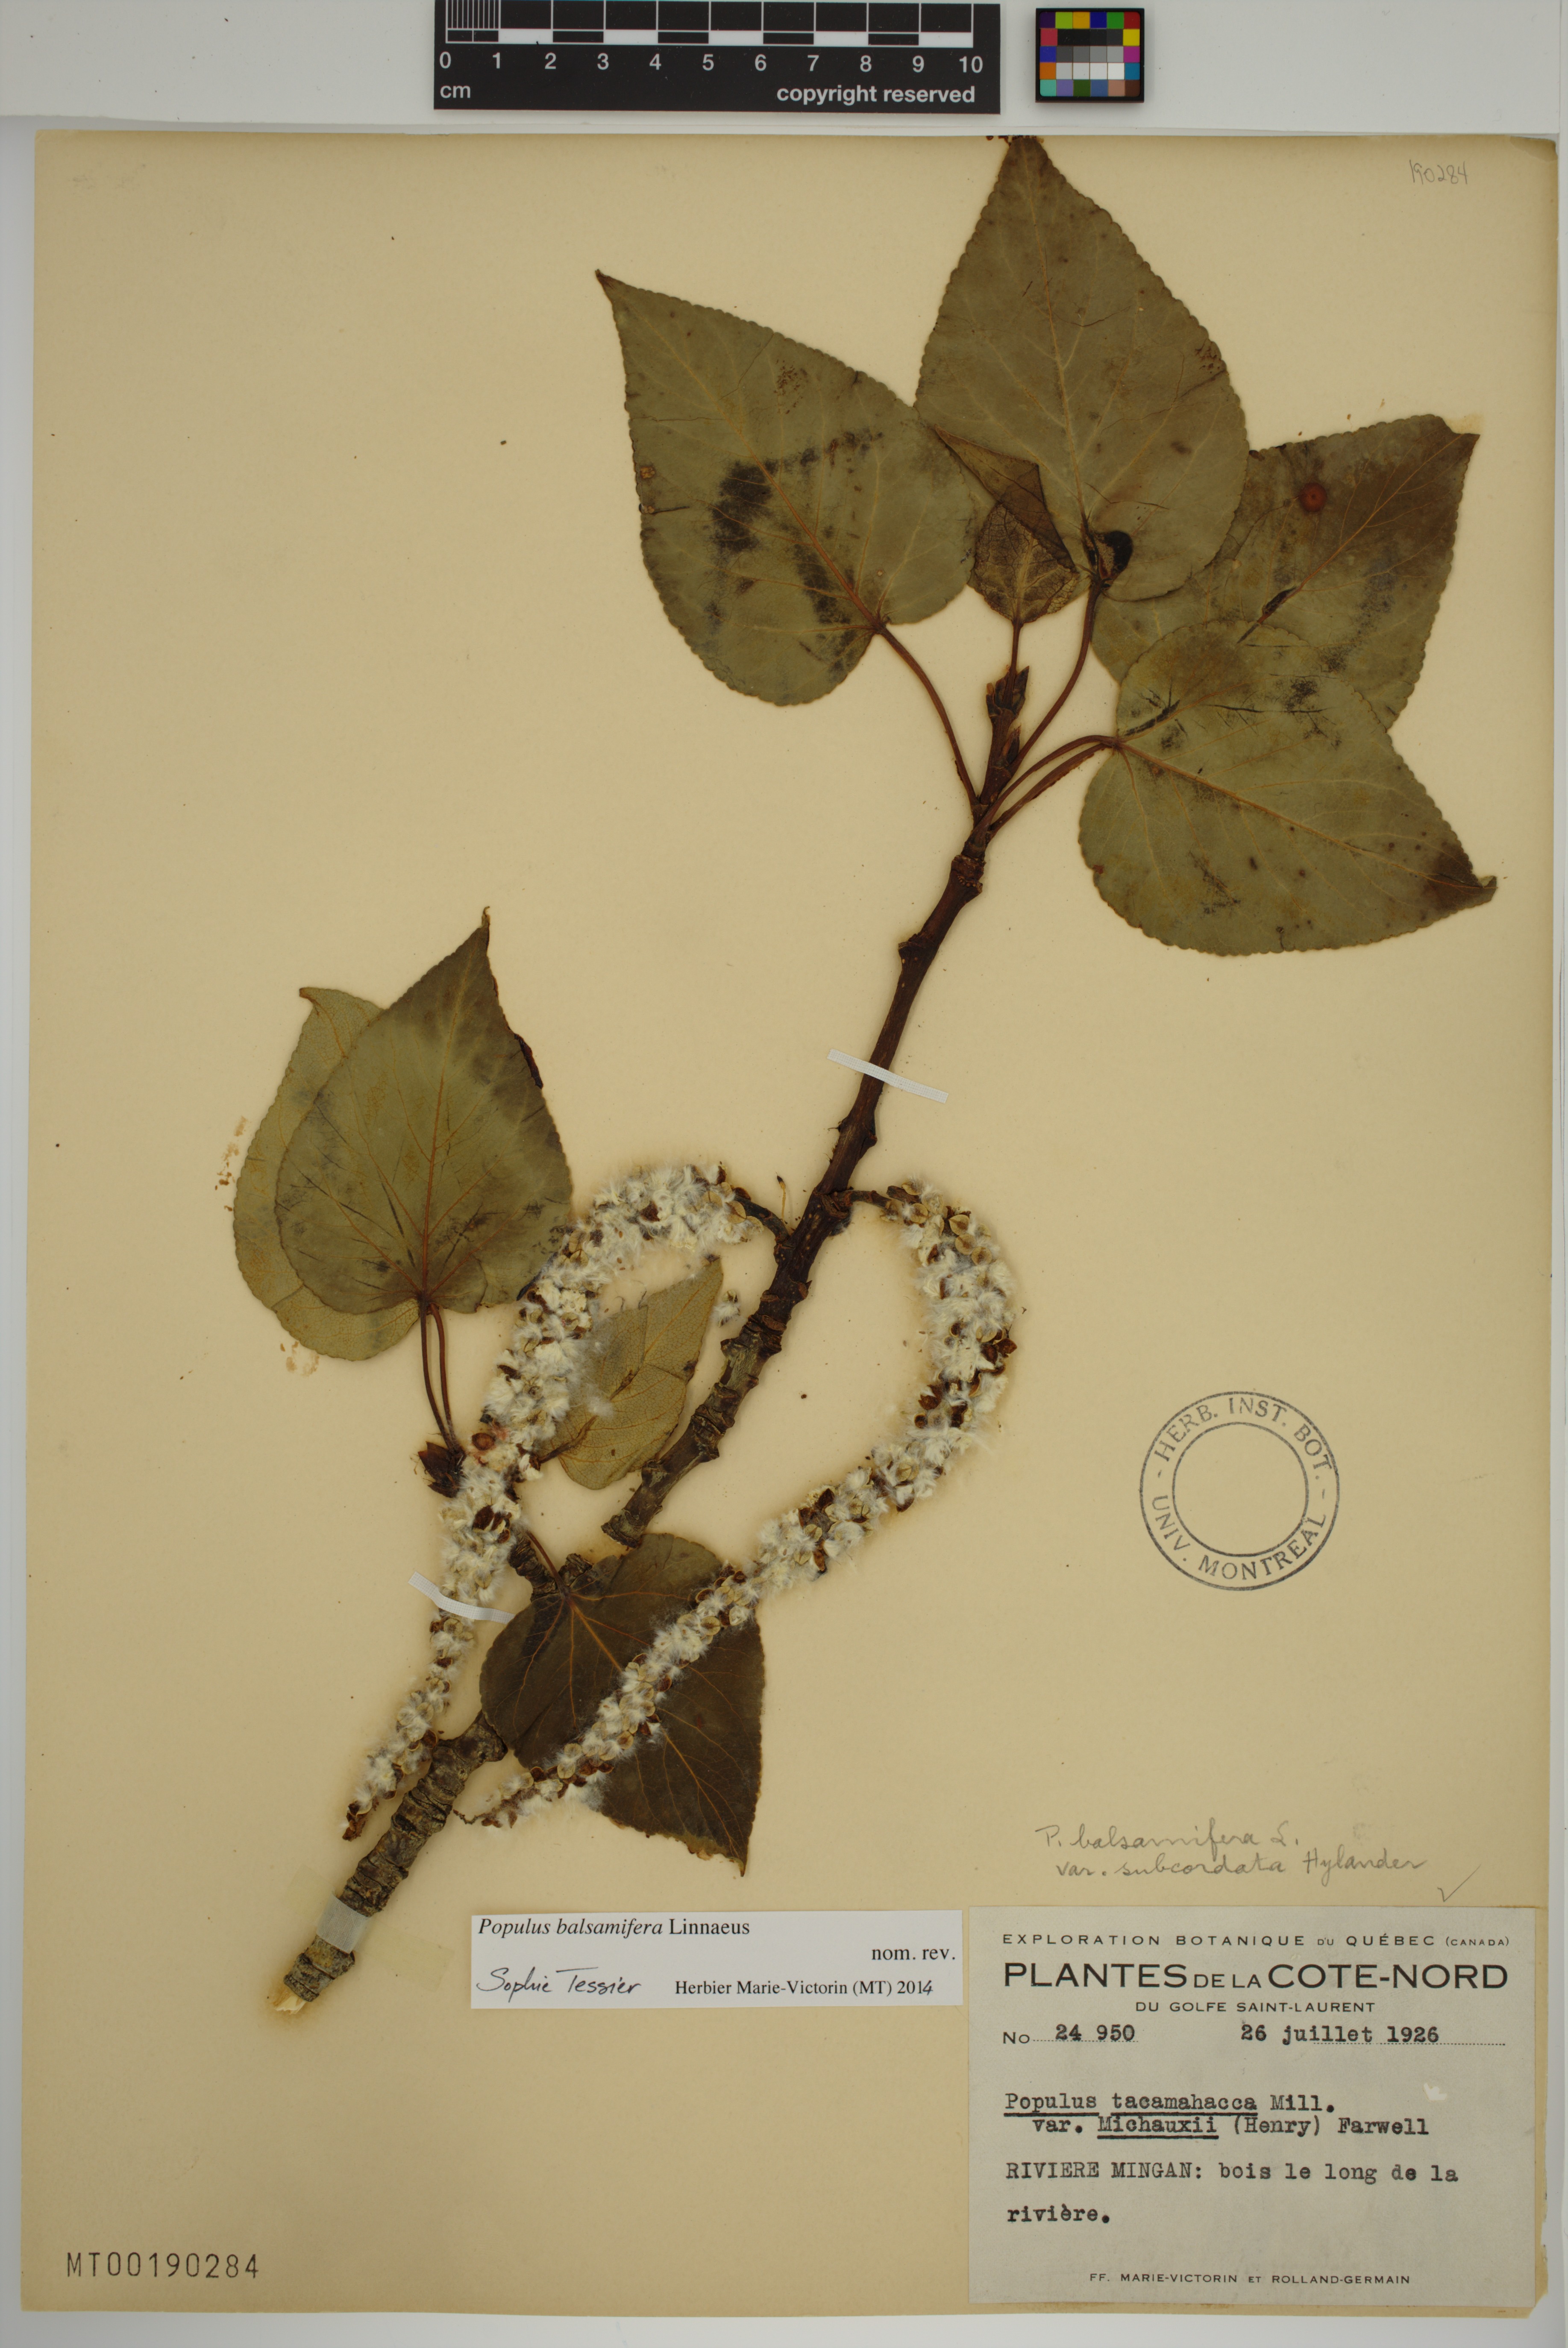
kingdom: Plantae
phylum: Tracheophyta
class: Magnoliopsida
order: Malpighiales
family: Salicaceae
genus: Populus
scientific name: Populus balsamifera
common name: Balsam poplar
